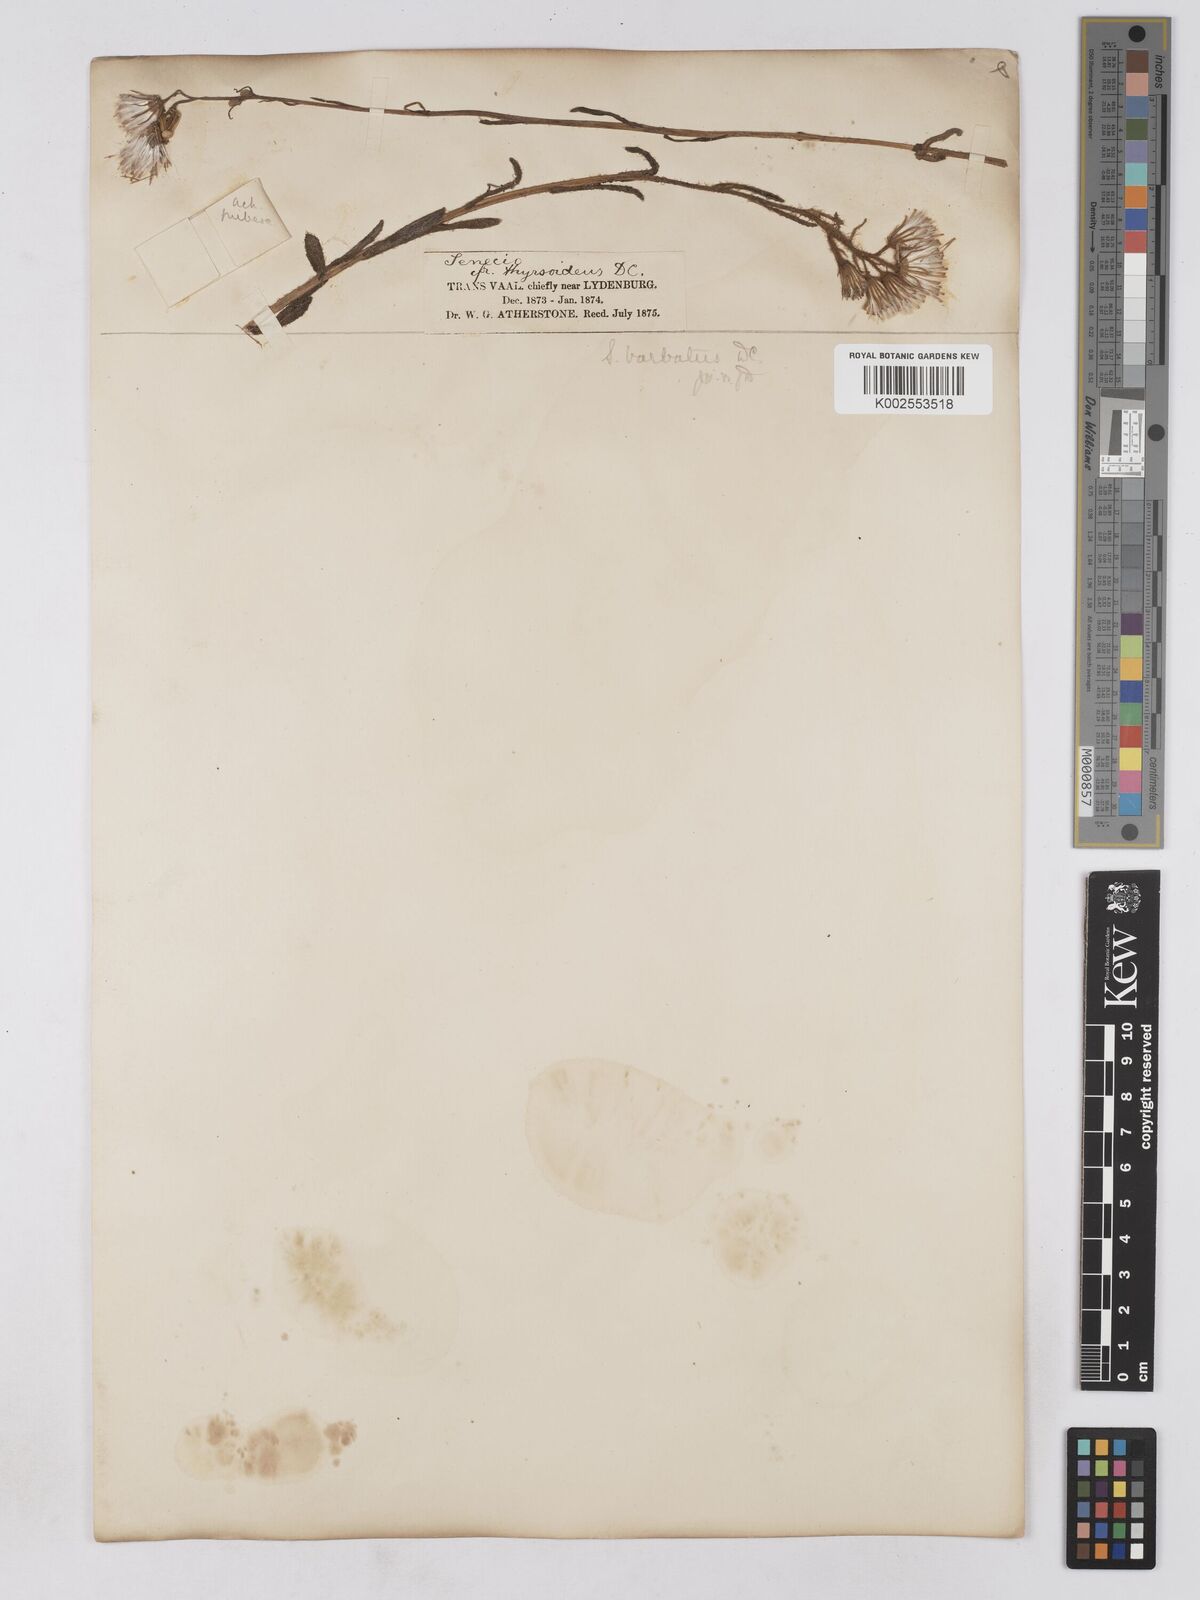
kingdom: Plantae
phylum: Tracheophyta
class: Magnoliopsida
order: Asterales
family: Asteraceae
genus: Senecio
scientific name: Senecio barbatus
